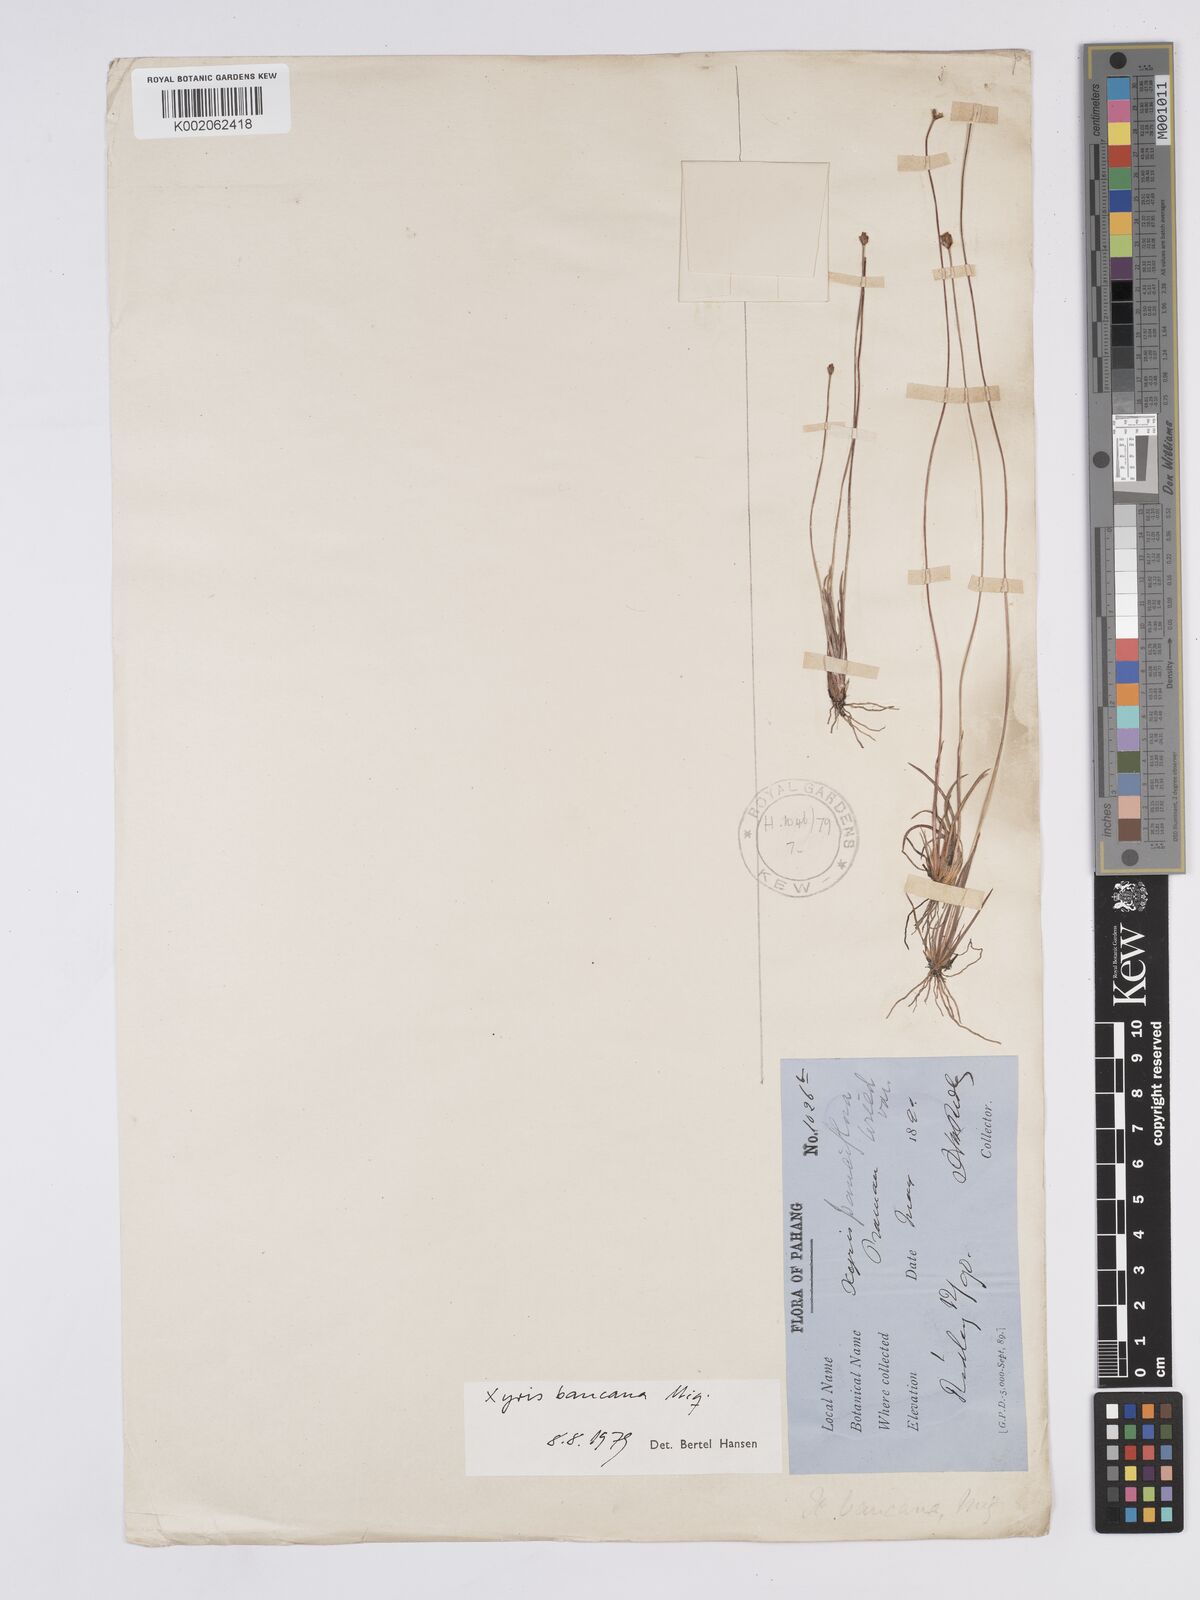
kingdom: Plantae
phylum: Tracheophyta
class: Liliopsida
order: Poales
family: Xyridaceae
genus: Xyris
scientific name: Xyris bancana
